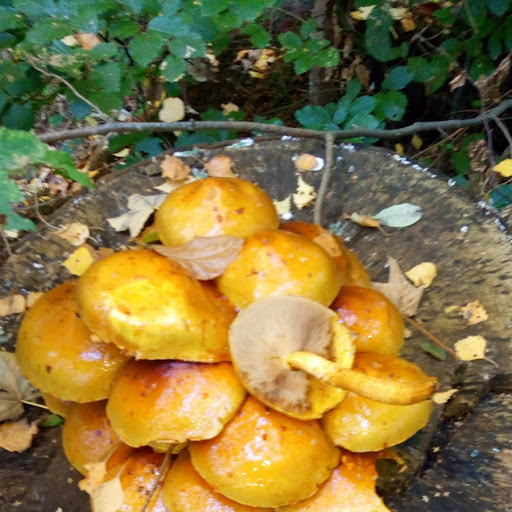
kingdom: Fungi
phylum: Basidiomycota
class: Agaricomycetes
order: Agaricales
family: Strophariaceae
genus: Pholiota
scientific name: Pholiota adiposa
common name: højtsiddende skælhat
